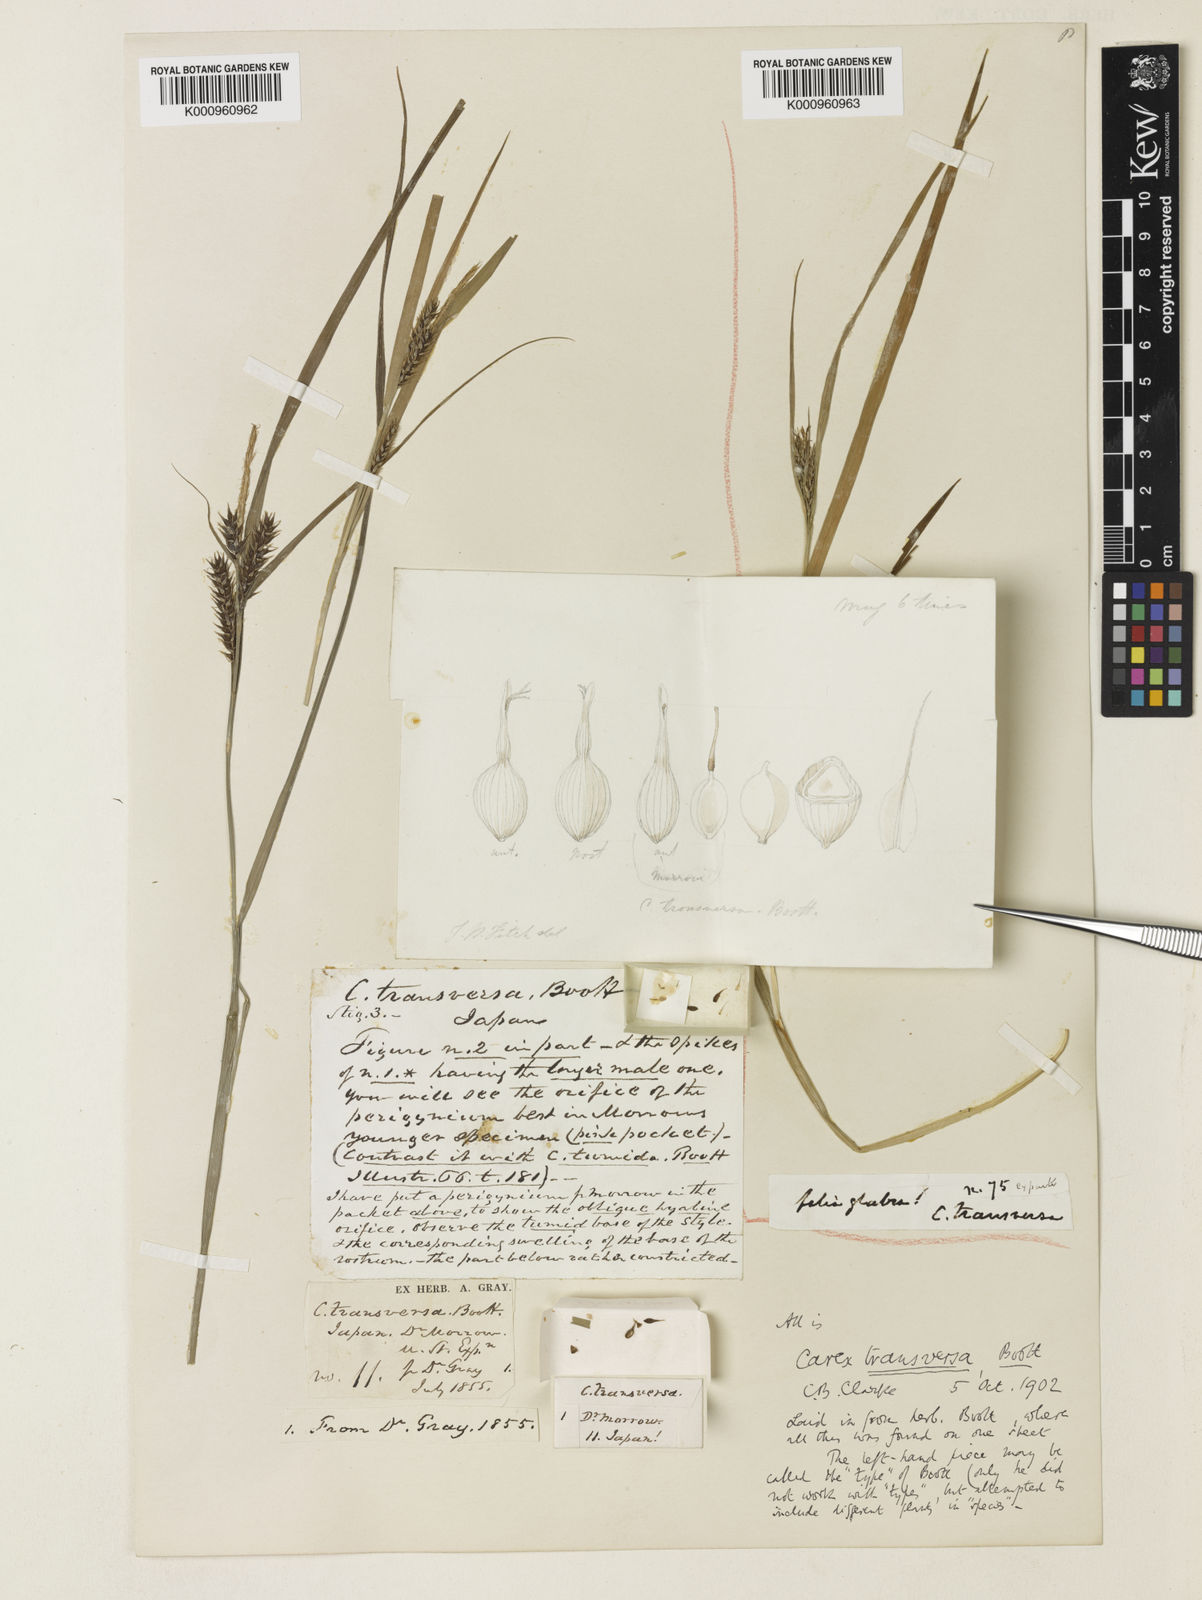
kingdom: Plantae
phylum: Tracheophyta
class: Liliopsida
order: Poales
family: Cyperaceae
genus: Carex
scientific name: Carex brownii
